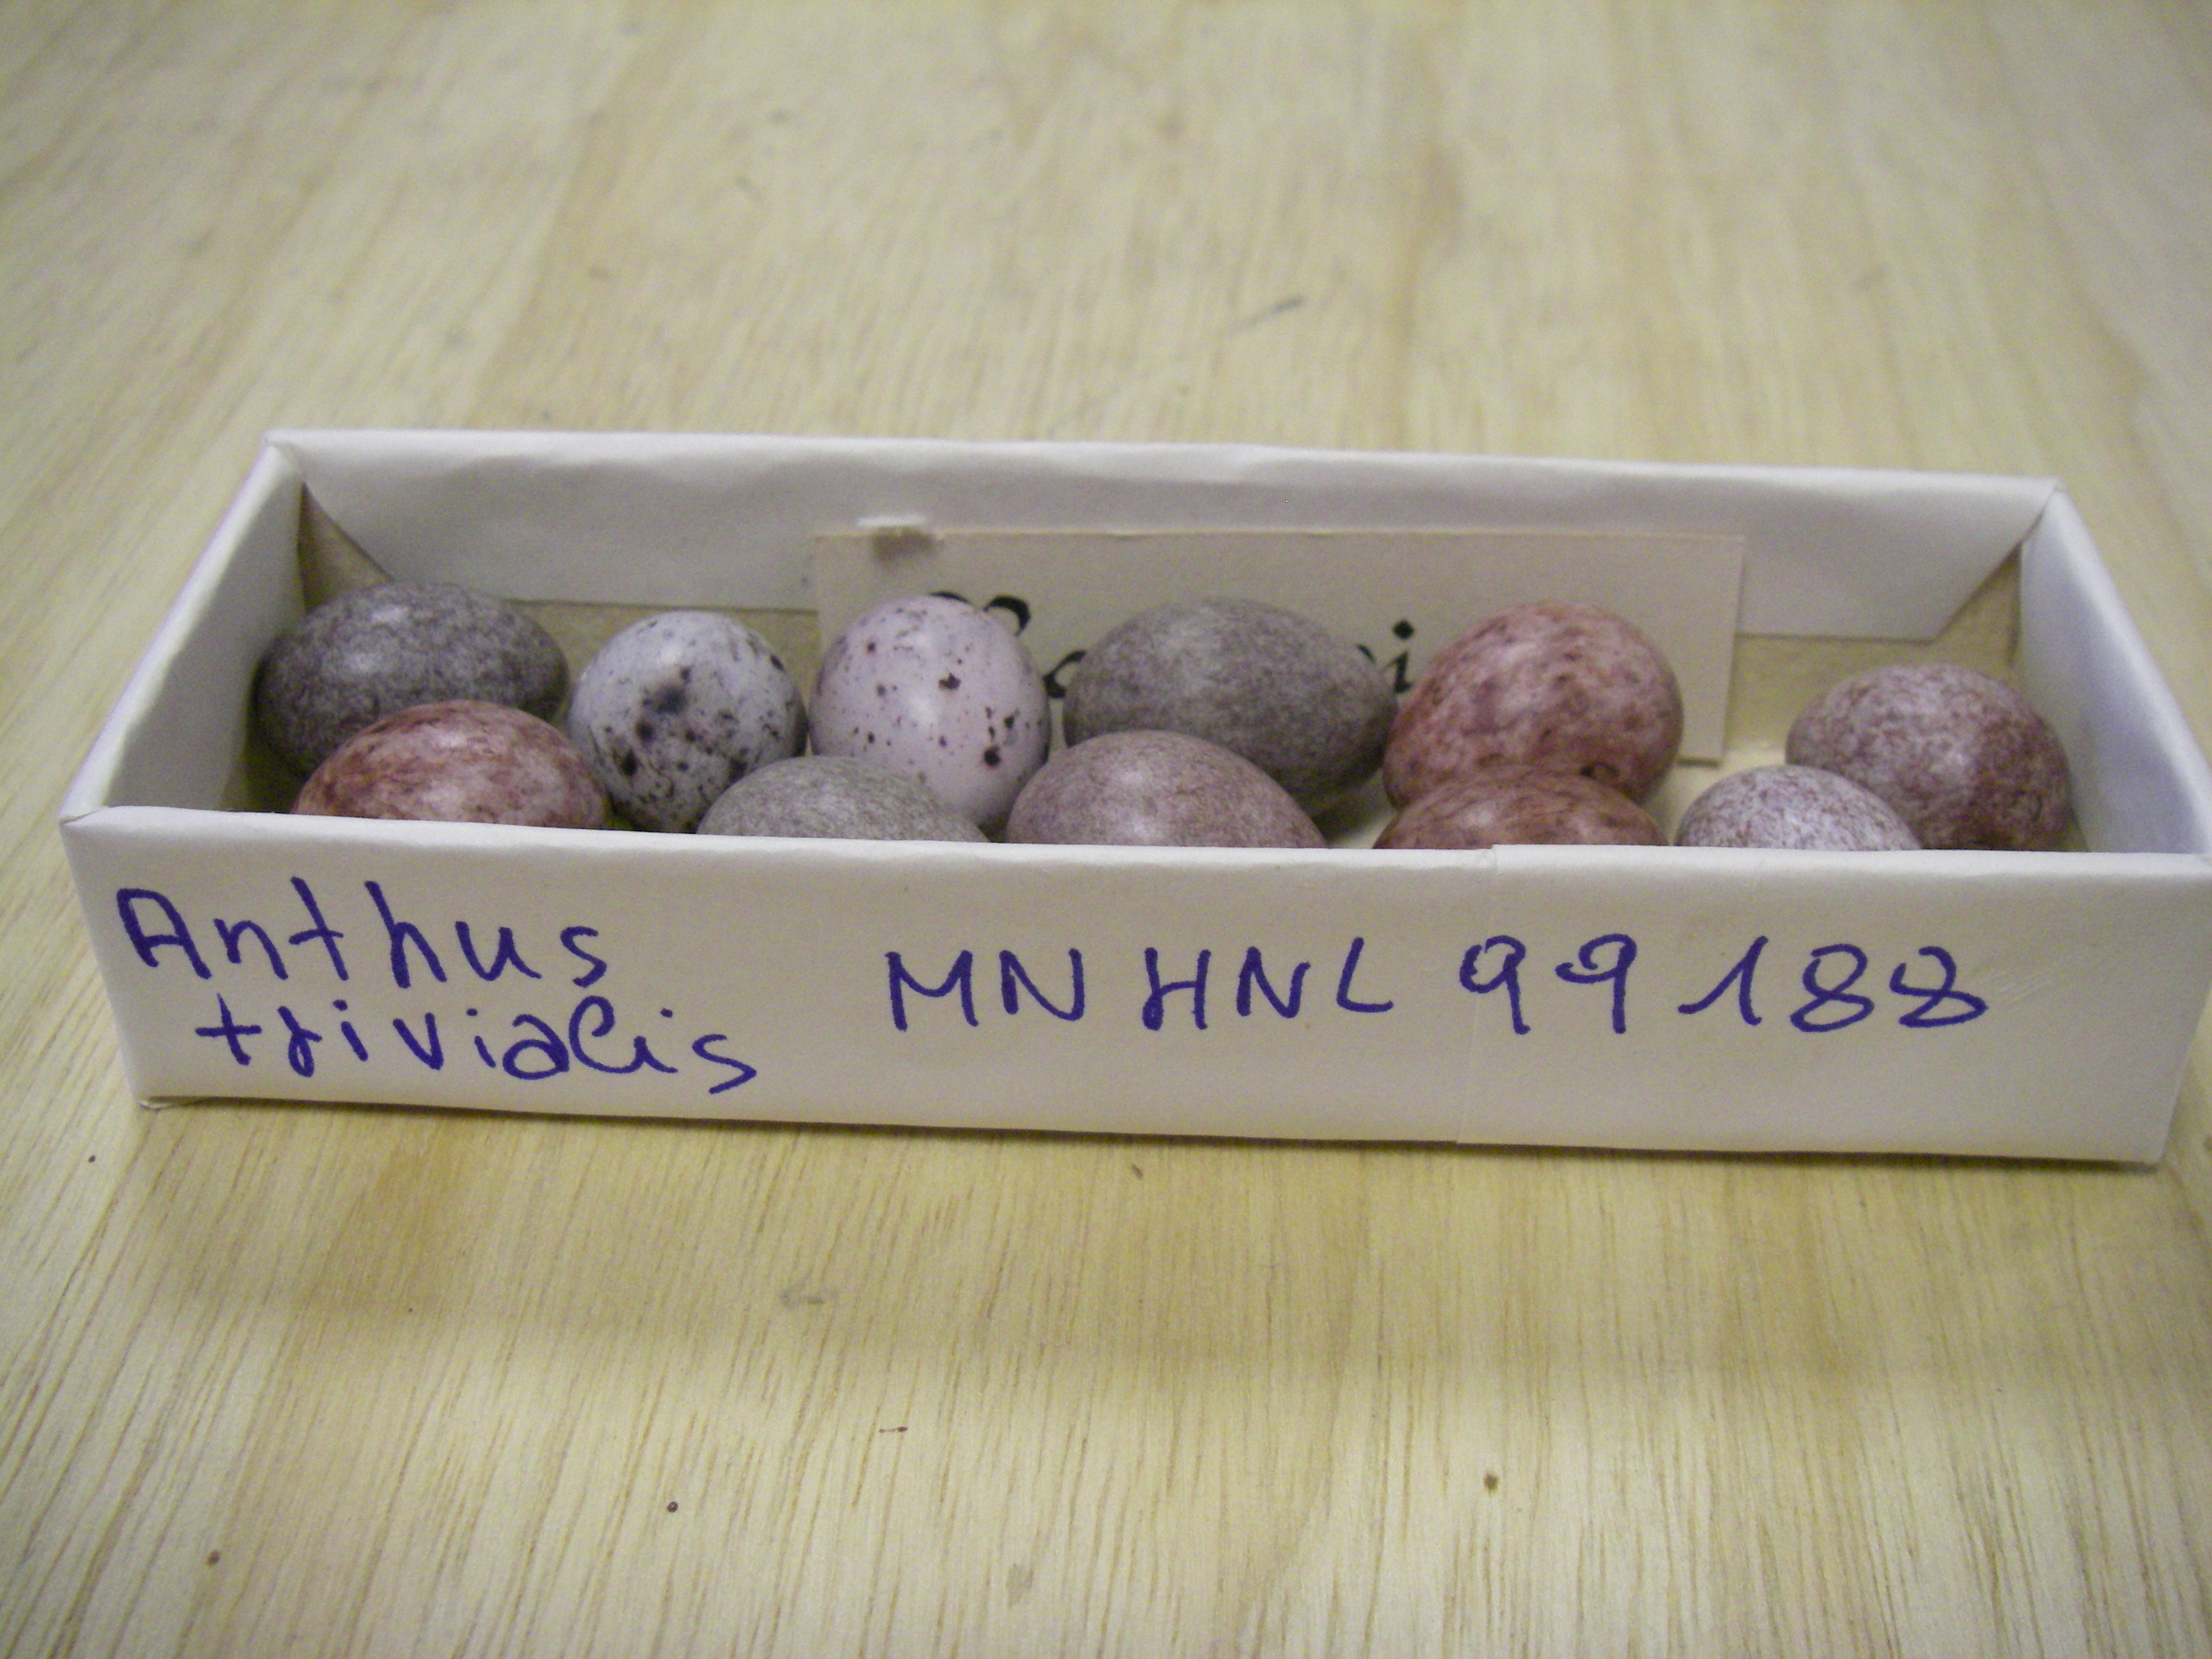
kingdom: Animalia
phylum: Chordata
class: Aves
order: Passeriformes
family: Motacillidae
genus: Anthus
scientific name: Anthus trivialis
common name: Tree pipit
